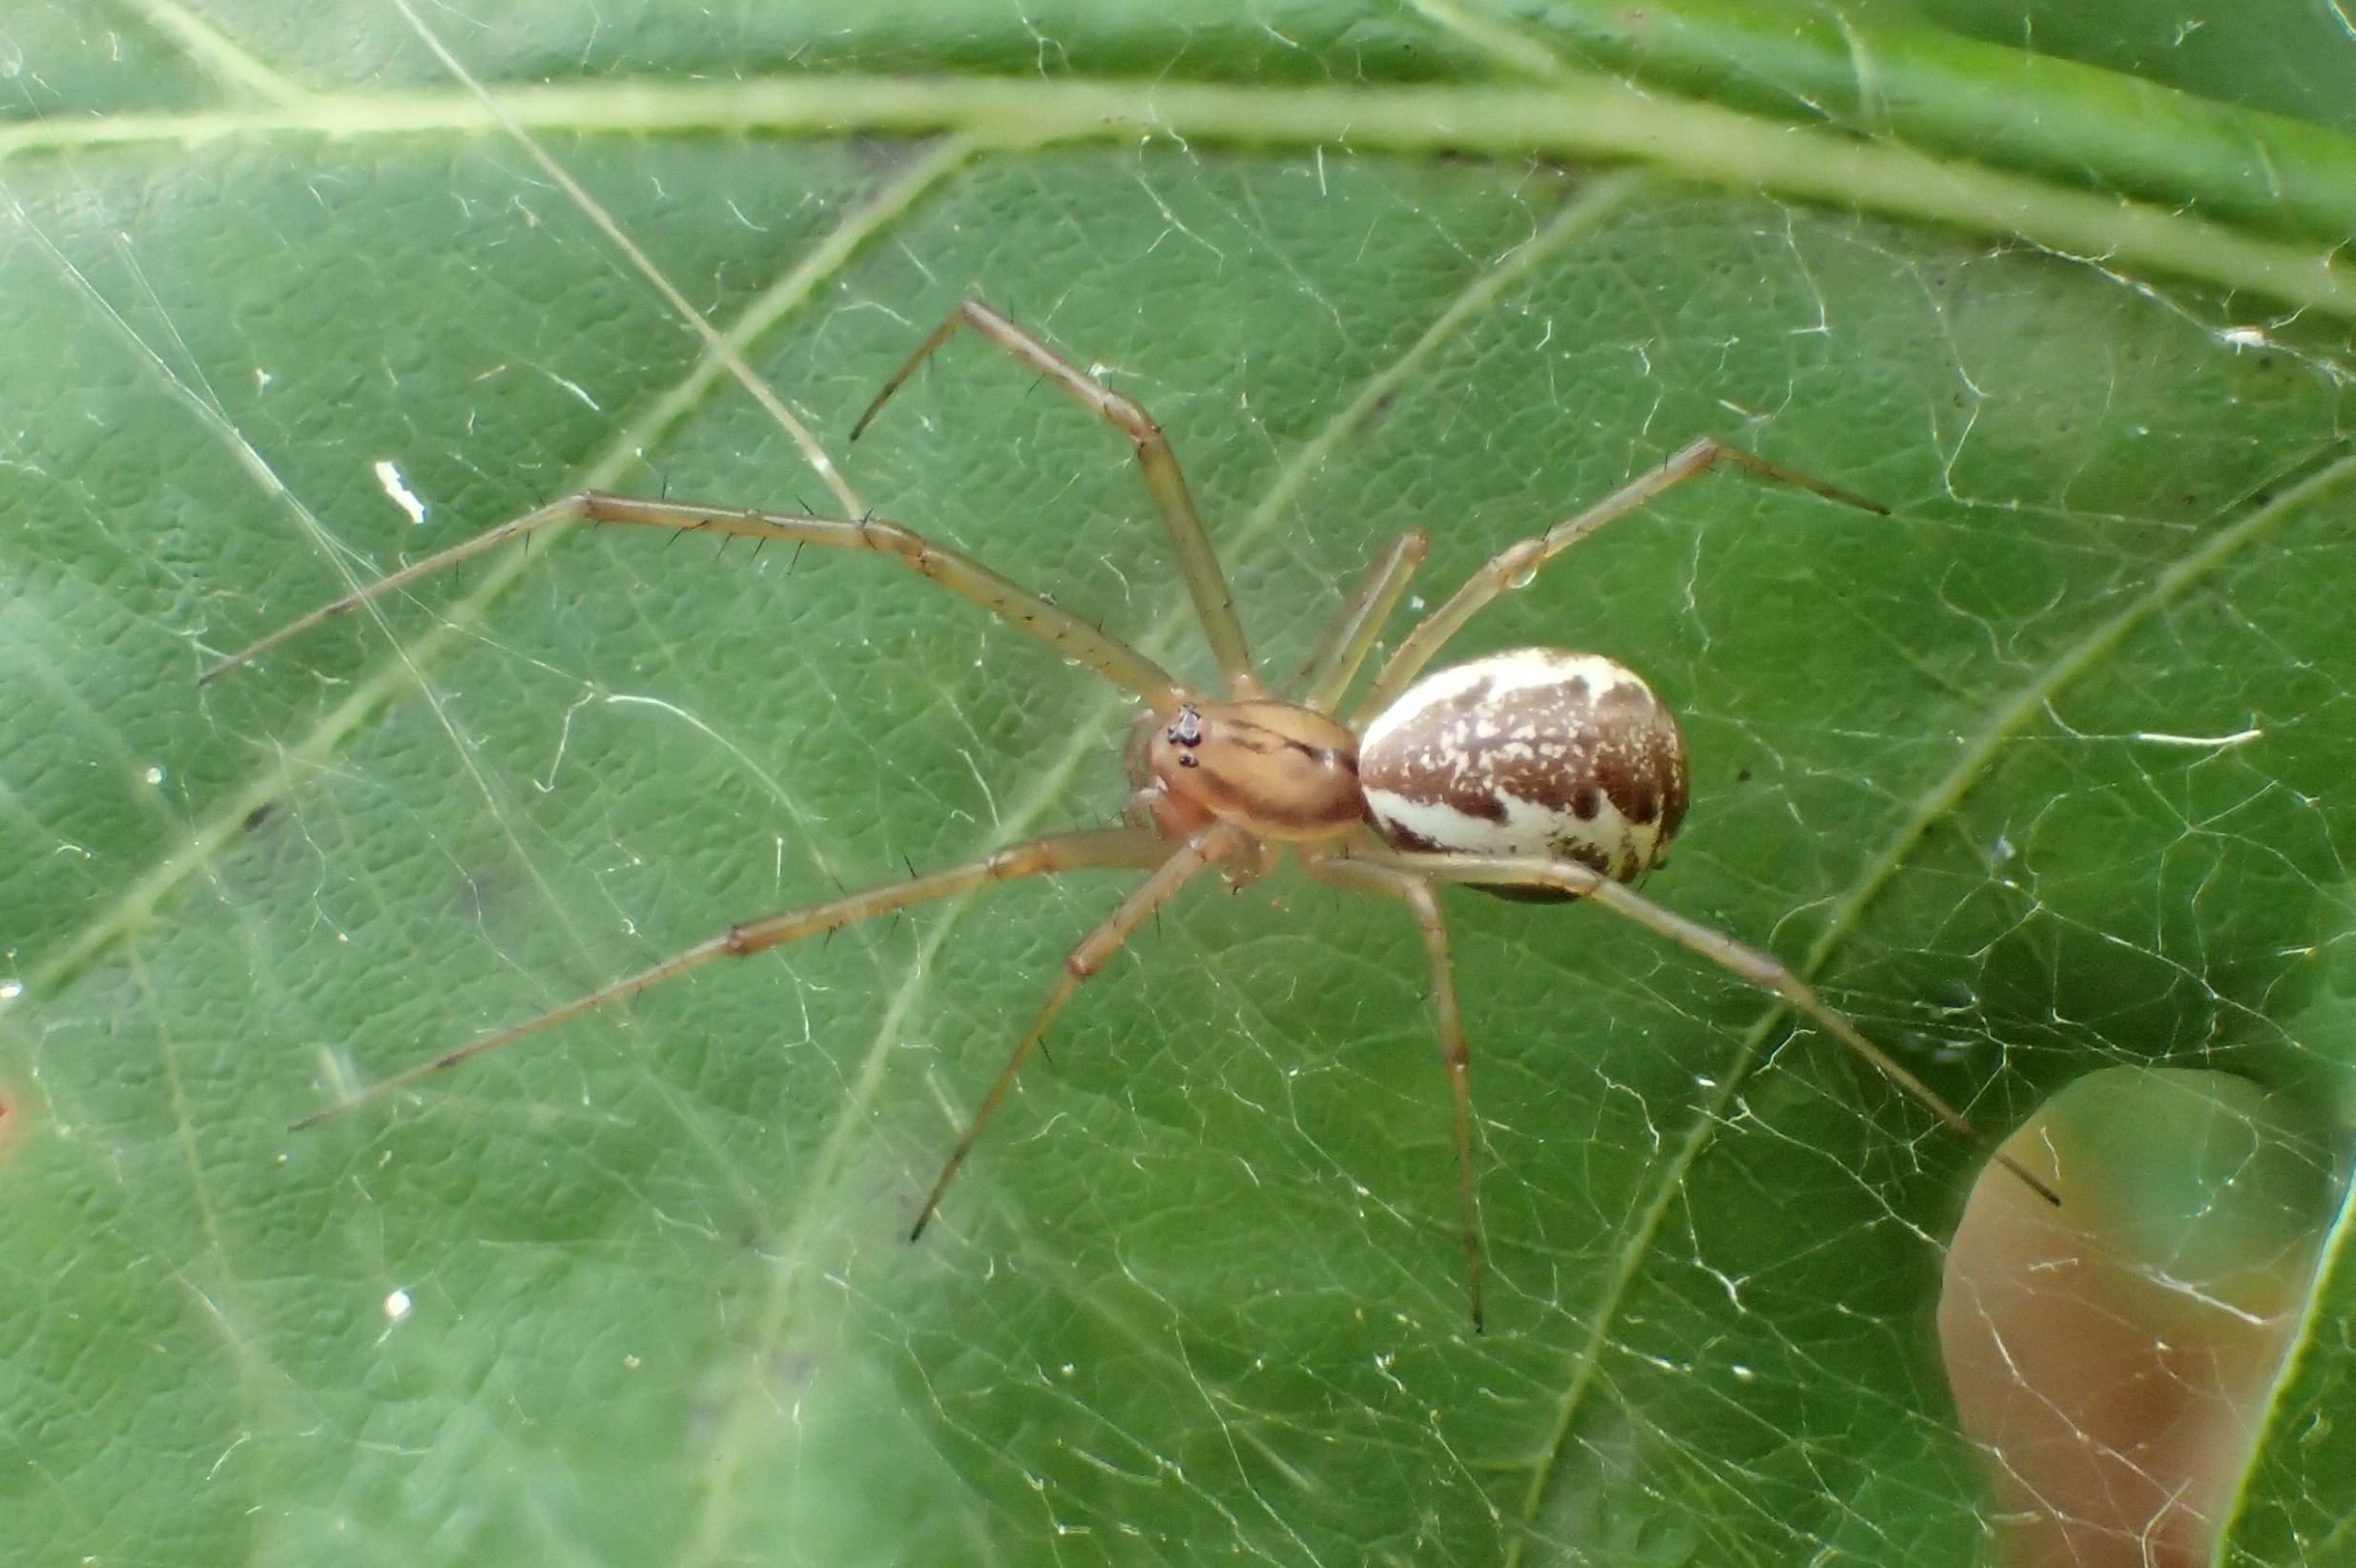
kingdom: Animalia
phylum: Arthropoda
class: Arachnida
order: Araneae
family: Linyphiidae
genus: Linyphia
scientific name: Linyphia triangularis
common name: Almindelig baldakinspinder
